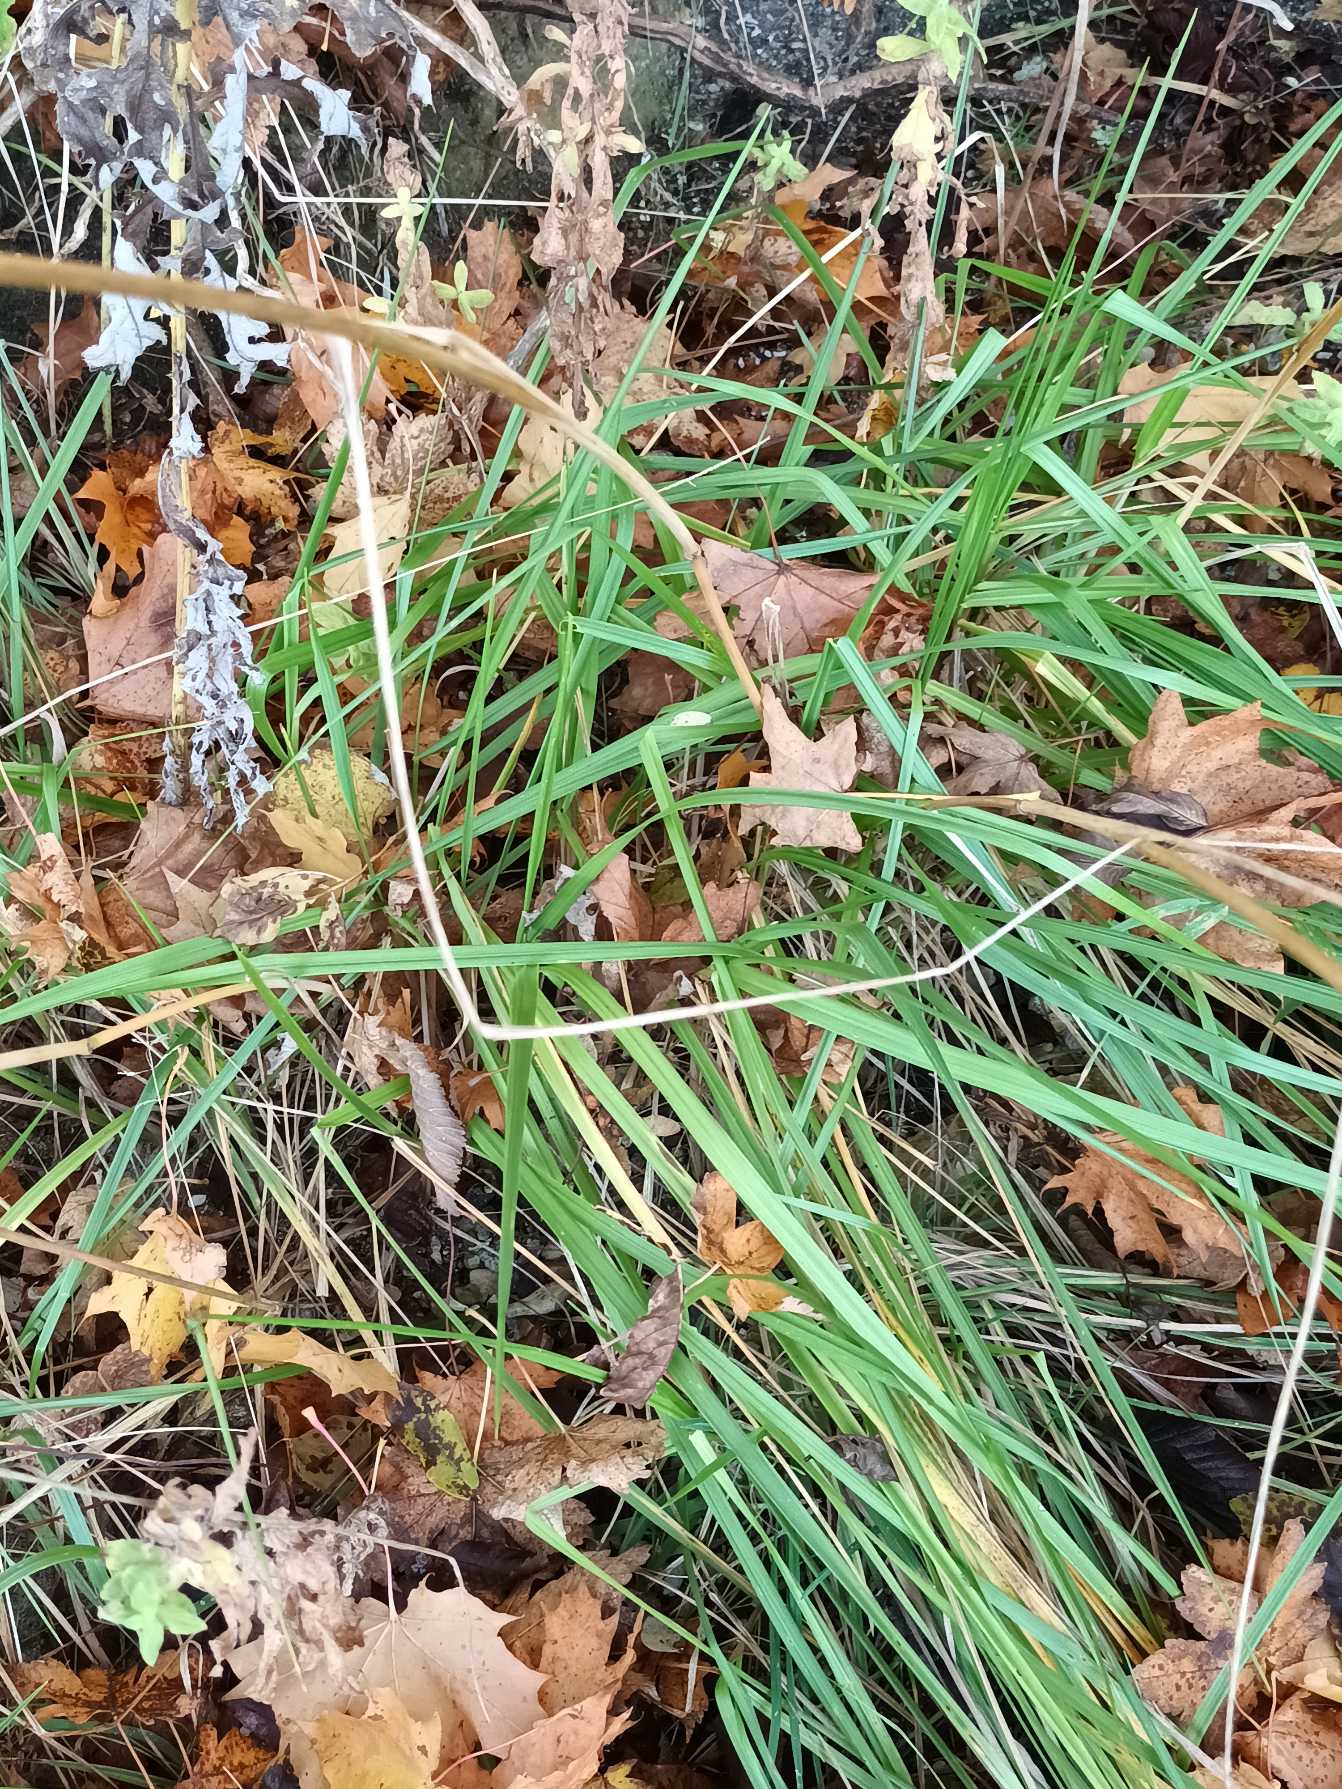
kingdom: Plantae
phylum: Tracheophyta
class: Liliopsida
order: Poales
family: Poaceae
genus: Lolium
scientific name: Lolium arundinaceum
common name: Strand-svingel
